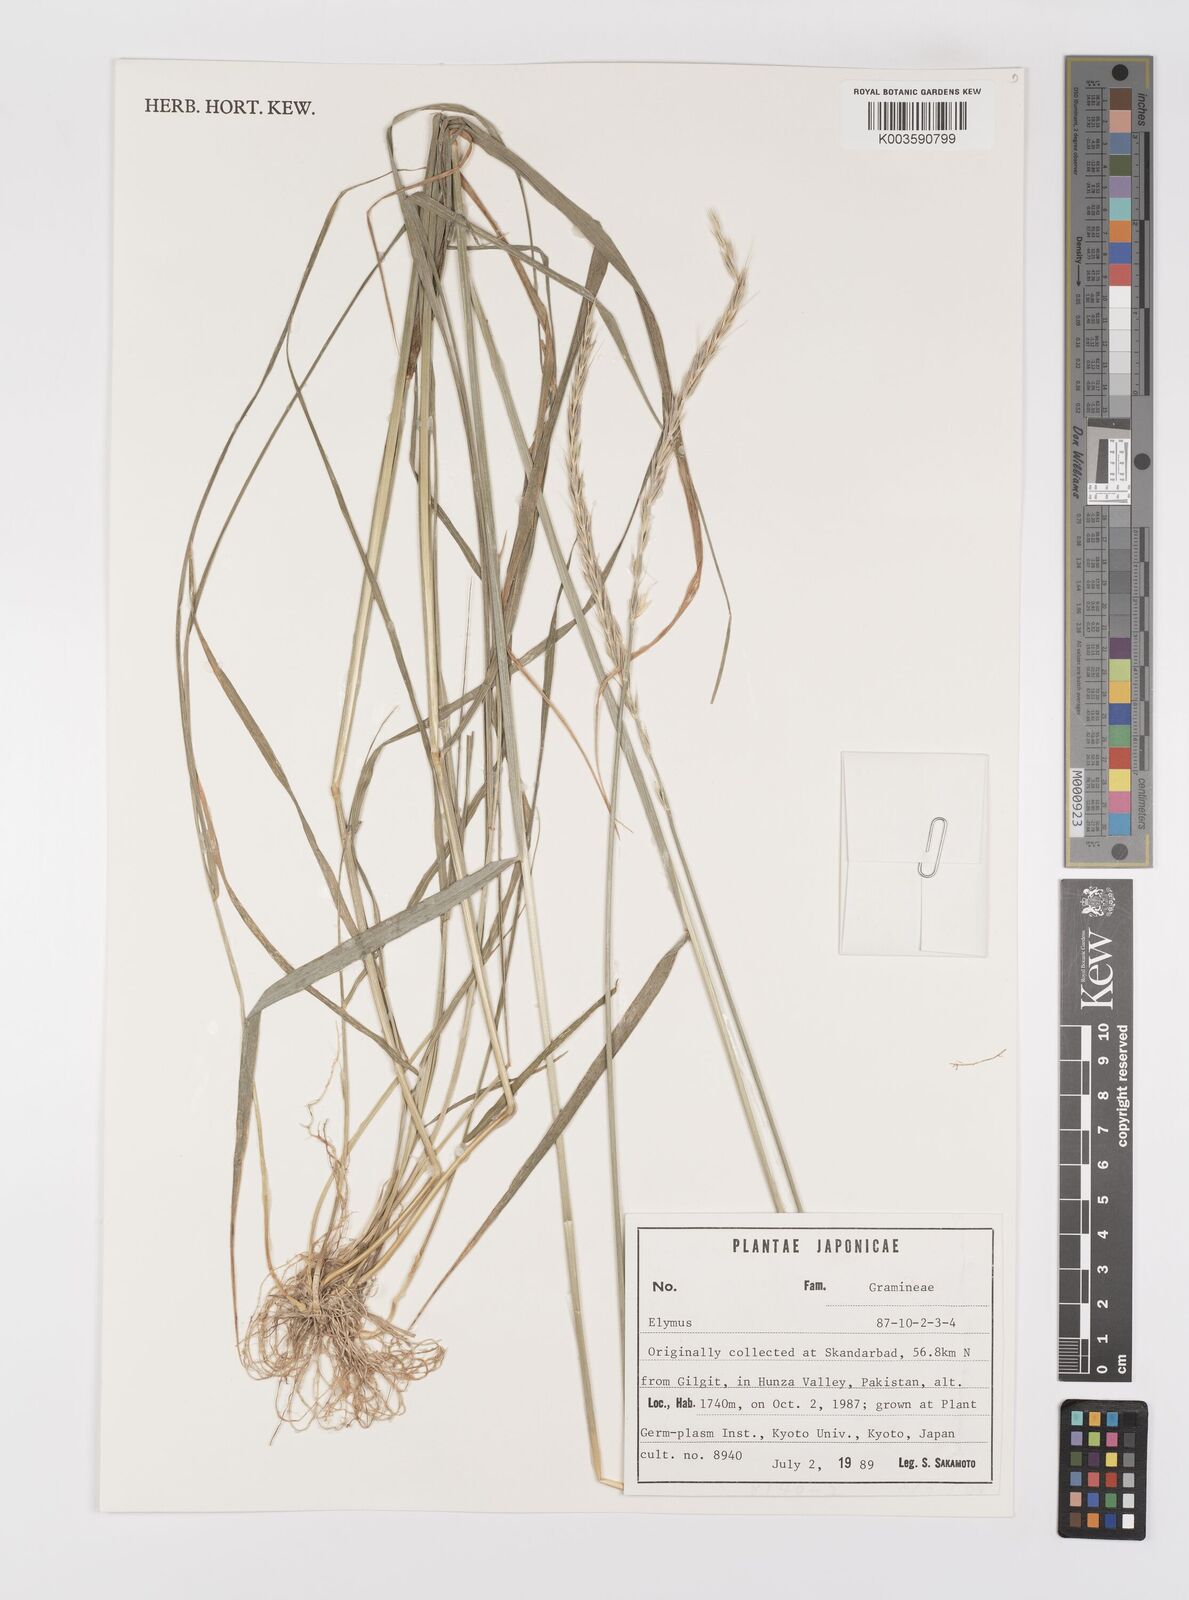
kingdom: Plantae
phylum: Tracheophyta
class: Liliopsida
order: Poales
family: Poaceae
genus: Elymus
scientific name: Elymus
